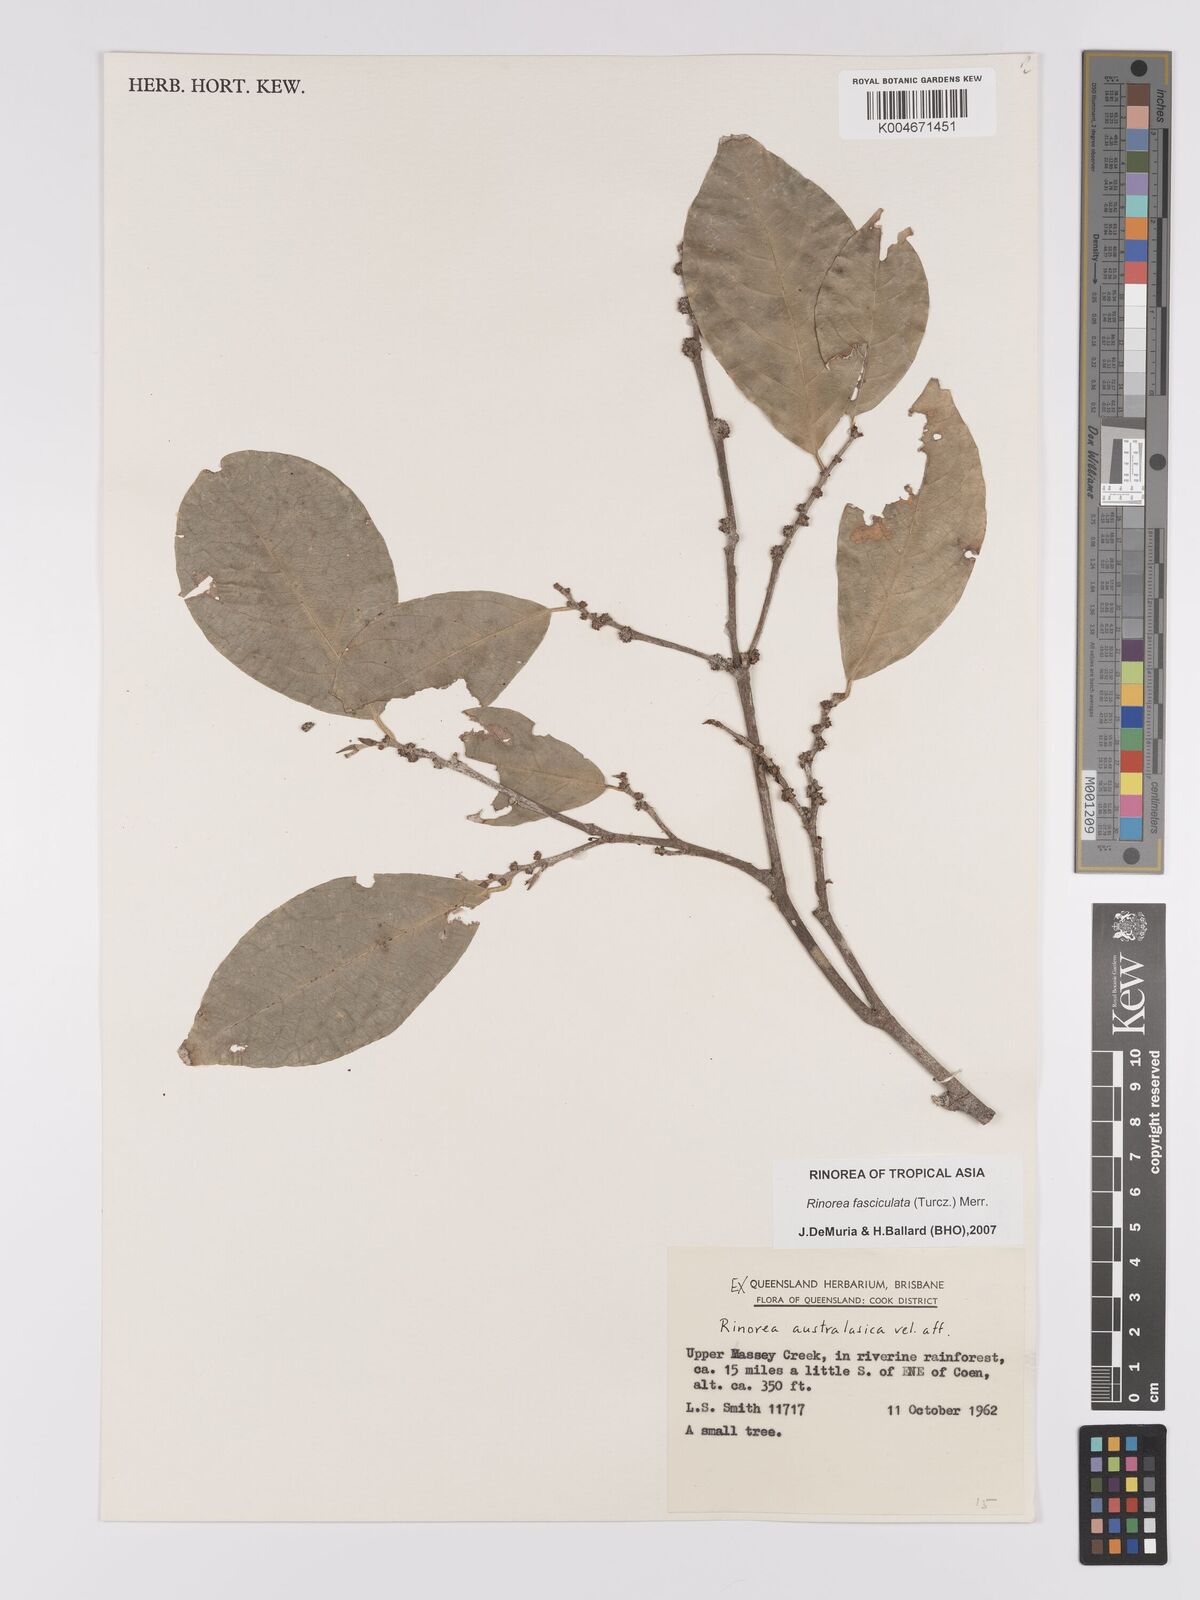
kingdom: Plantae
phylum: Tracheophyta
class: Magnoliopsida
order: Malpighiales
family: Violaceae
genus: Rinorea
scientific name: Rinorea bengalensis
